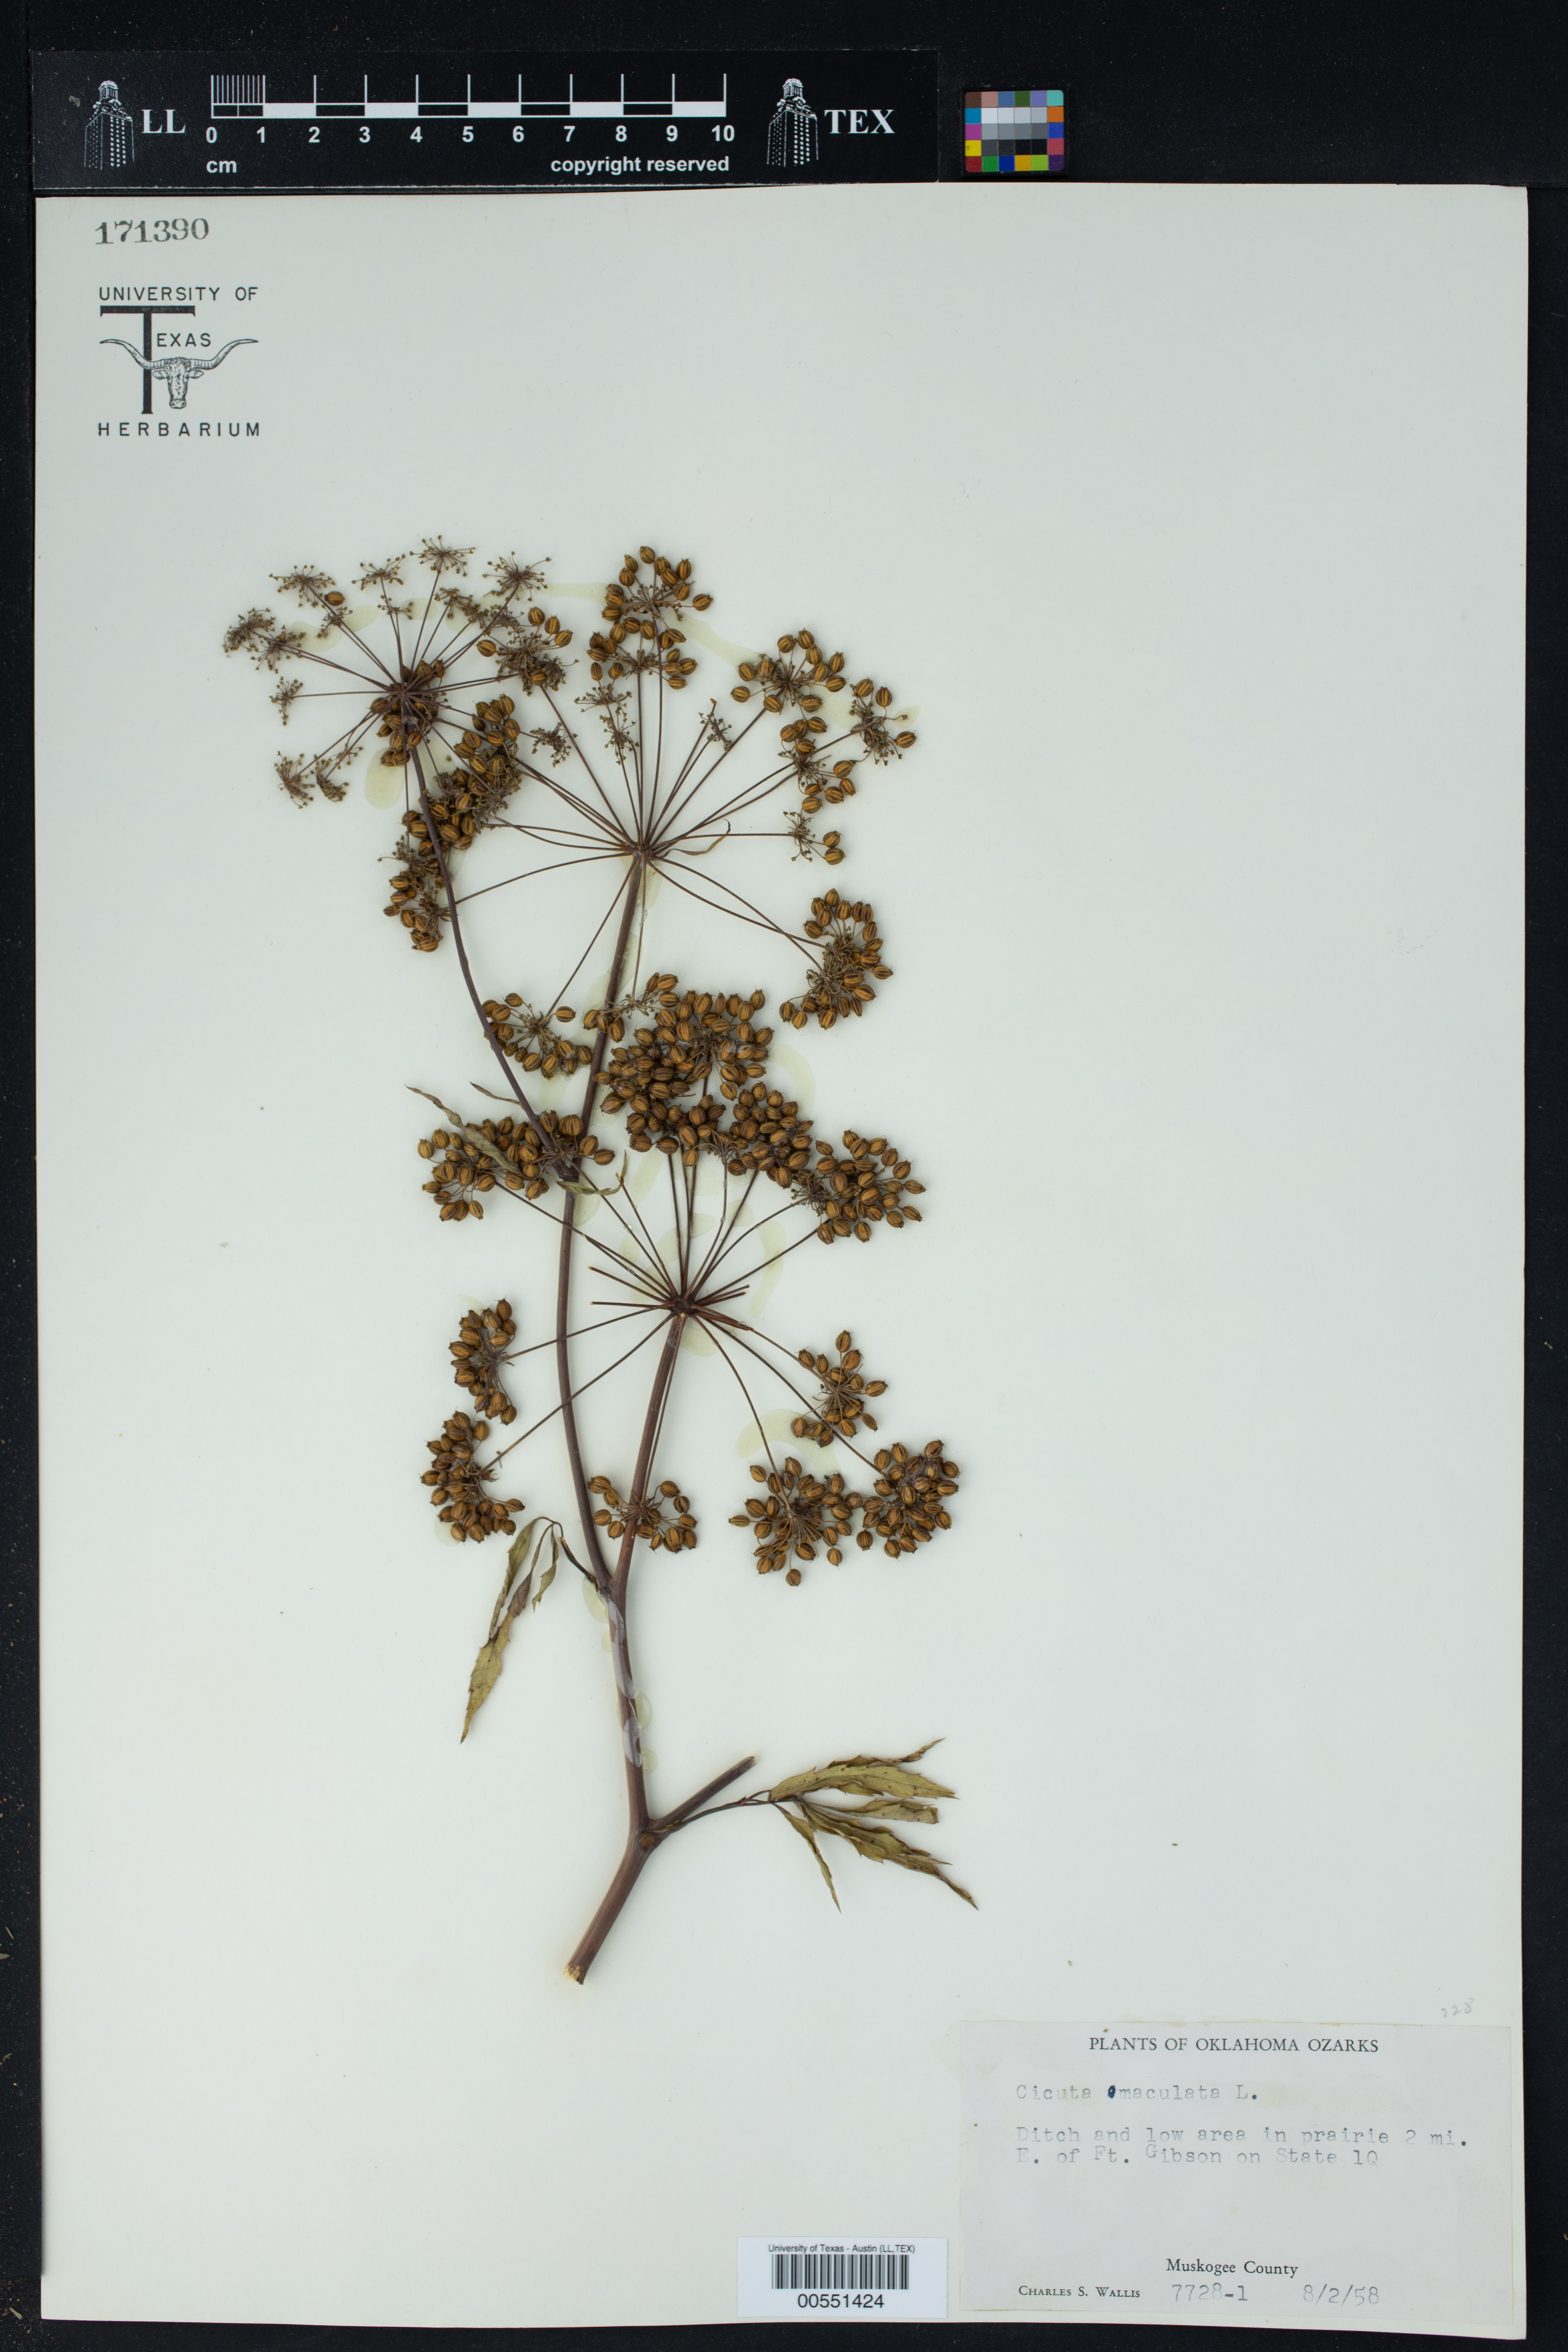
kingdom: Plantae
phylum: Tracheophyta
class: Magnoliopsida
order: Apiales
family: Apiaceae
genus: Cicuta
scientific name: Cicuta maculata
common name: Spotted cowbane
